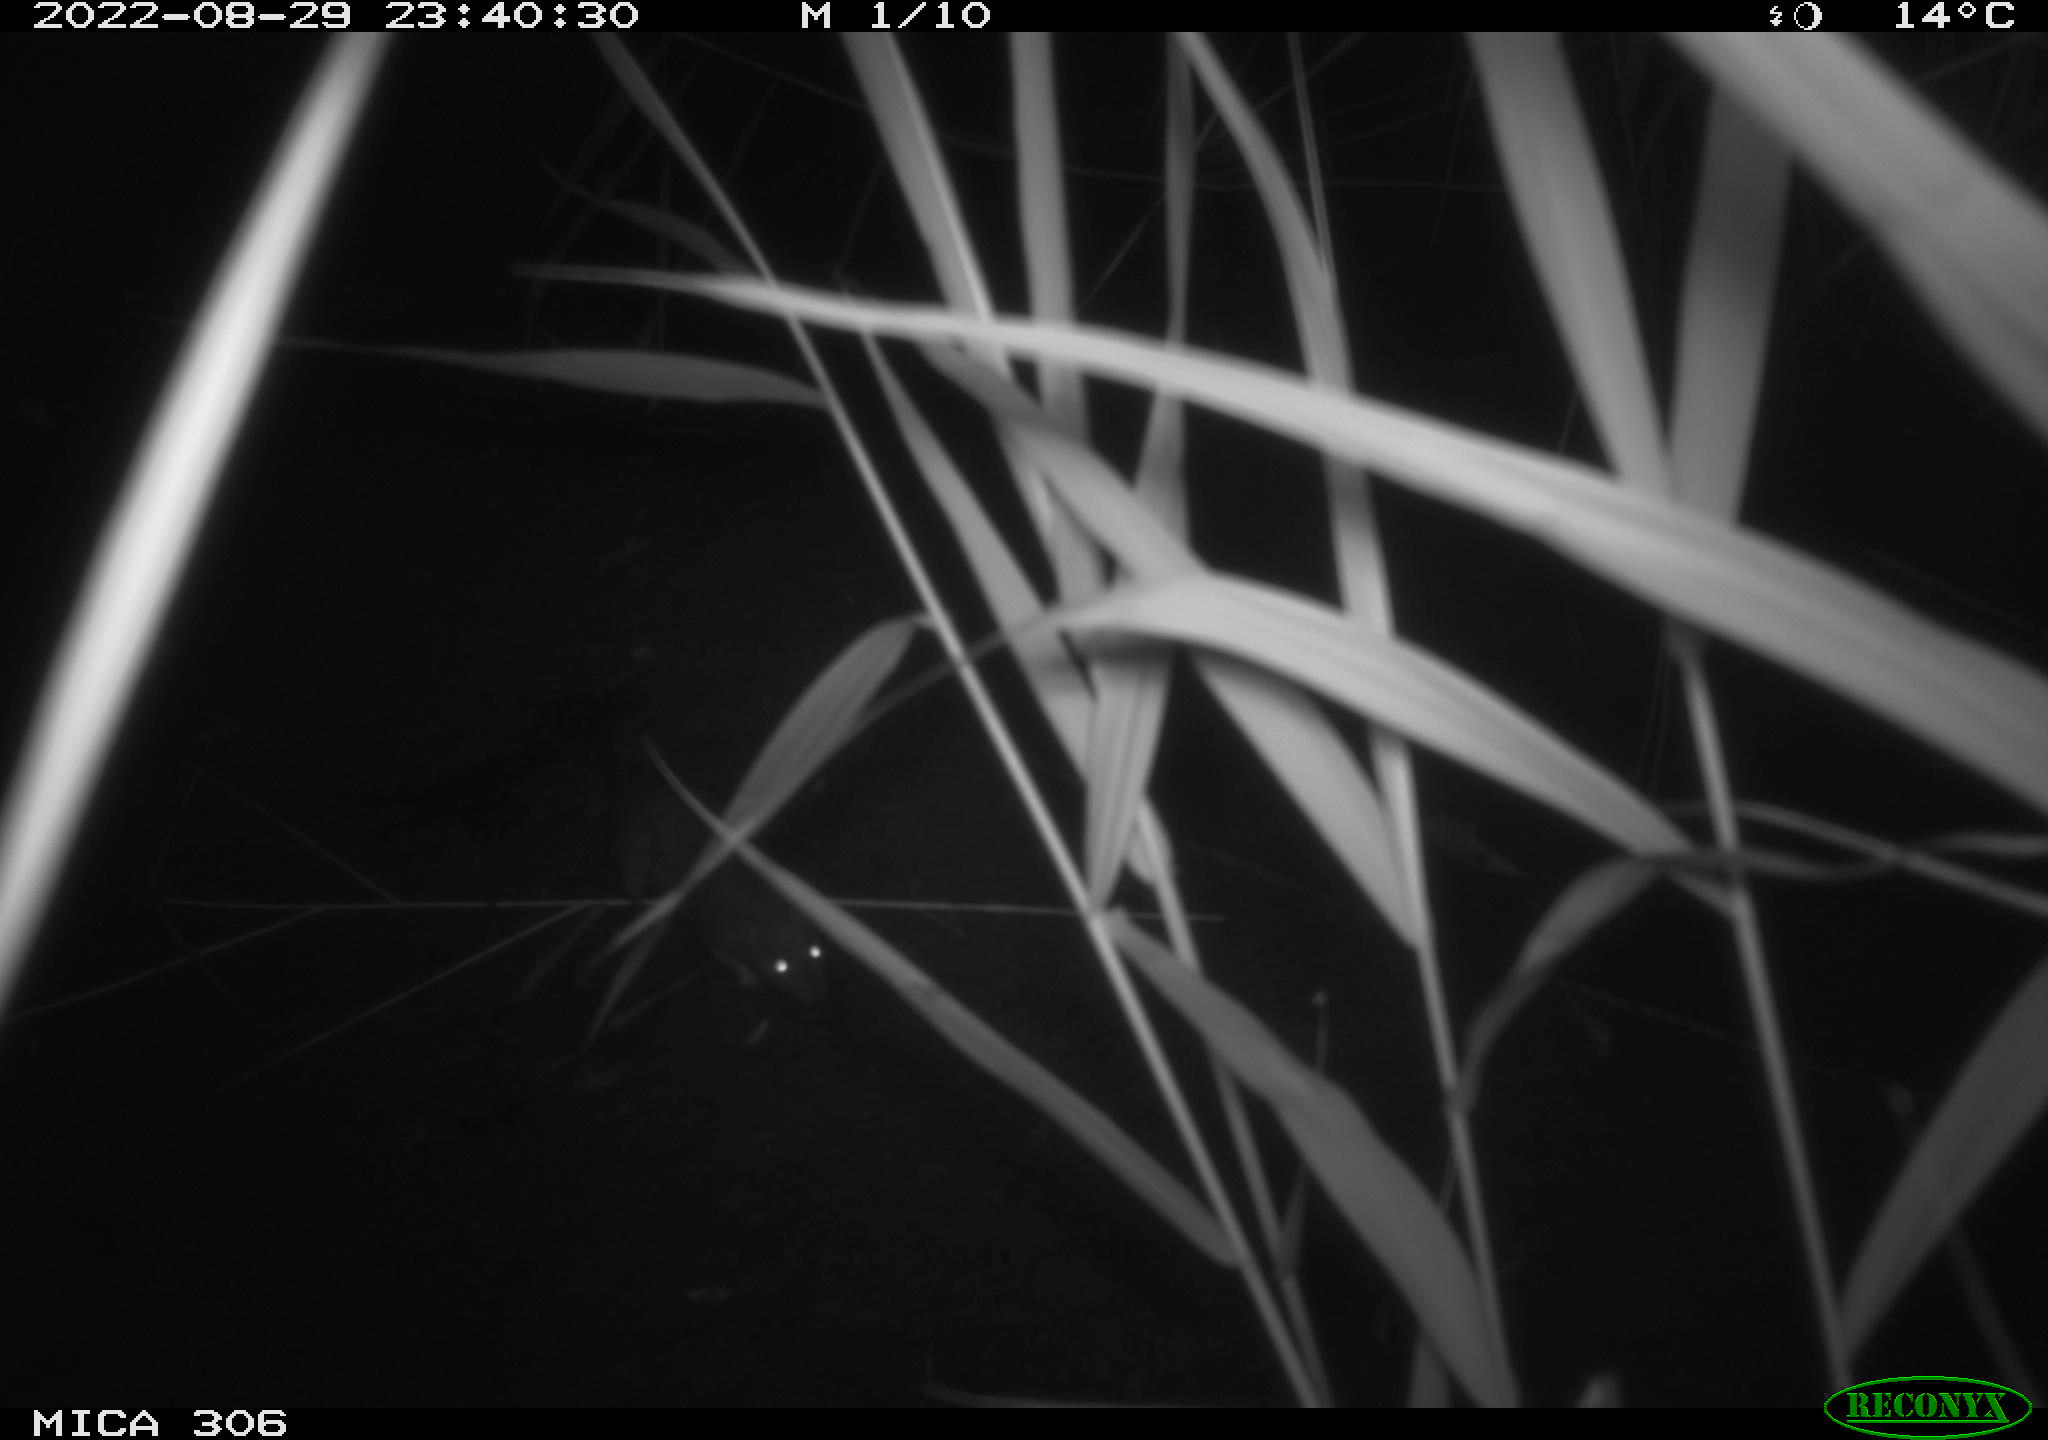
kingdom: Animalia
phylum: Chordata
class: Mammalia
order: Rodentia
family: Muridae
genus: Rattus
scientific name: Rattus norvegicus
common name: Brown rat
